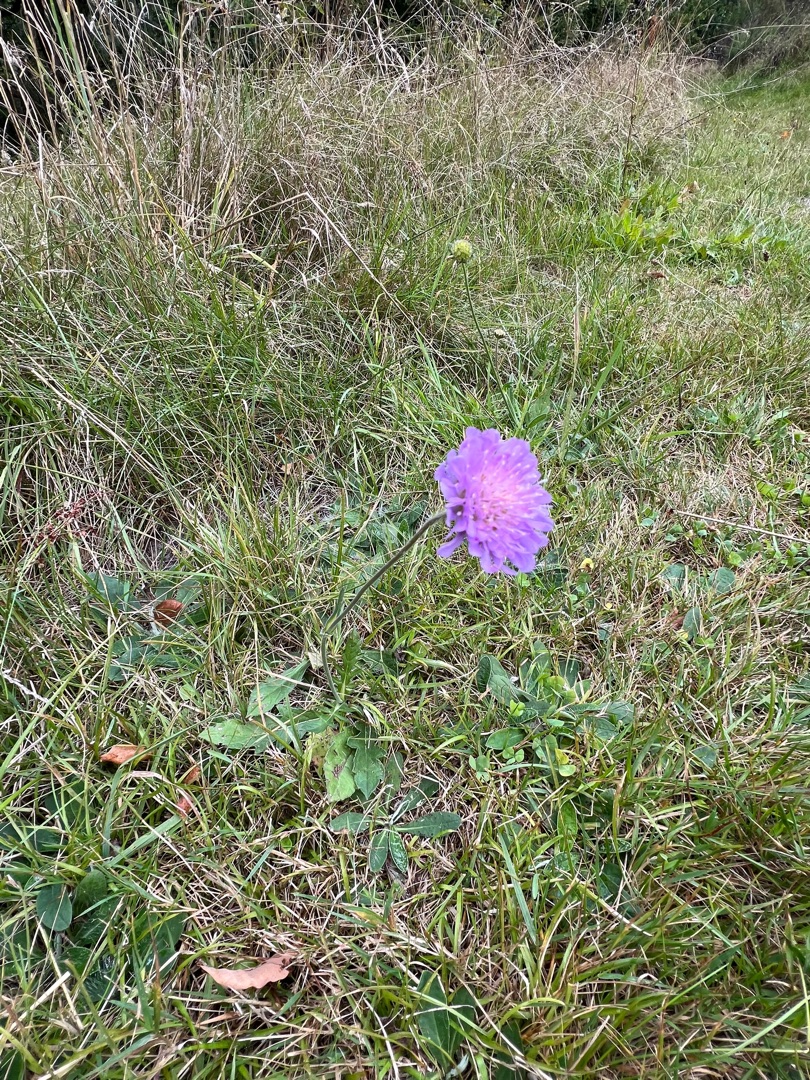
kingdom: Plantae
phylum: Tracheophyta
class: Magnoliopsida
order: Dipsacales
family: Caprifoliaceae
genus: Knautia
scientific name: Knautia arvensis
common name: Blåhat
